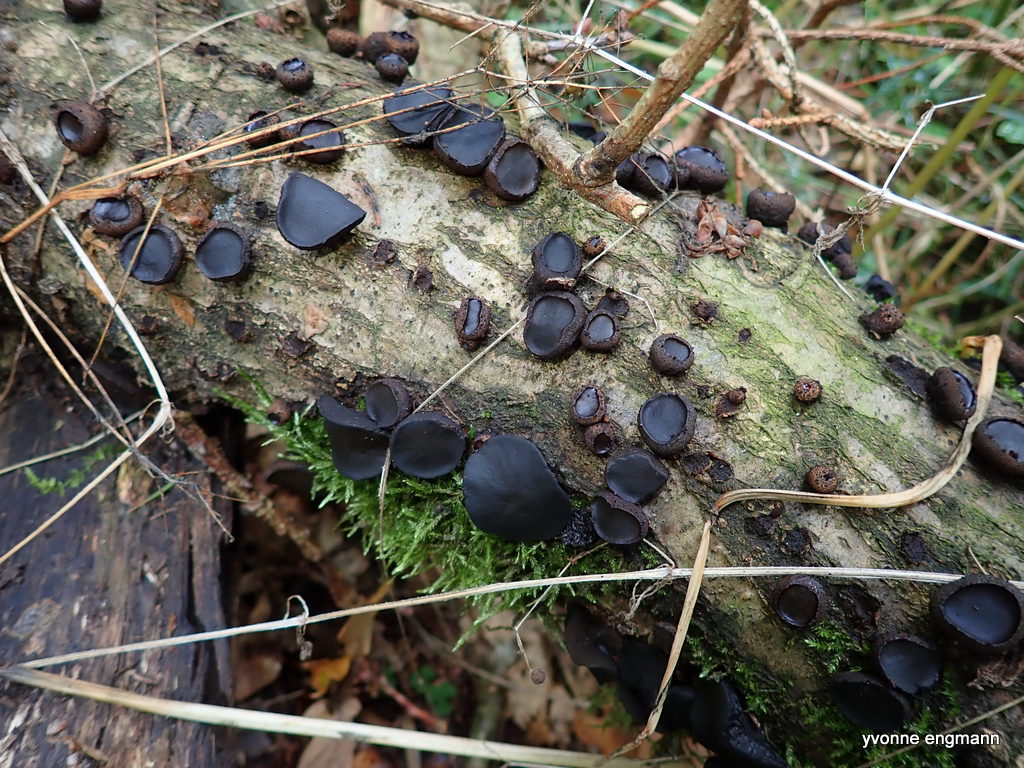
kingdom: Fungi
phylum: Ascomycota
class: Leotiomycetes
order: Phacidiales
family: Phacidiaceae
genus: Bulgaria
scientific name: Bulgaria inquinans
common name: afsmittende topsvamp
